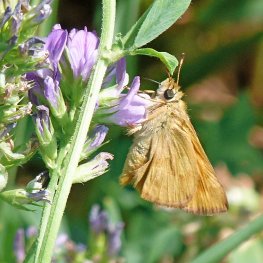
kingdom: Animalia
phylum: Arthropoda
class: Insecta
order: Lepidoptera
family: Hesperiidae
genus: Ochlodes
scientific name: Ochlodes sylvanoides
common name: Woodland Skipper
